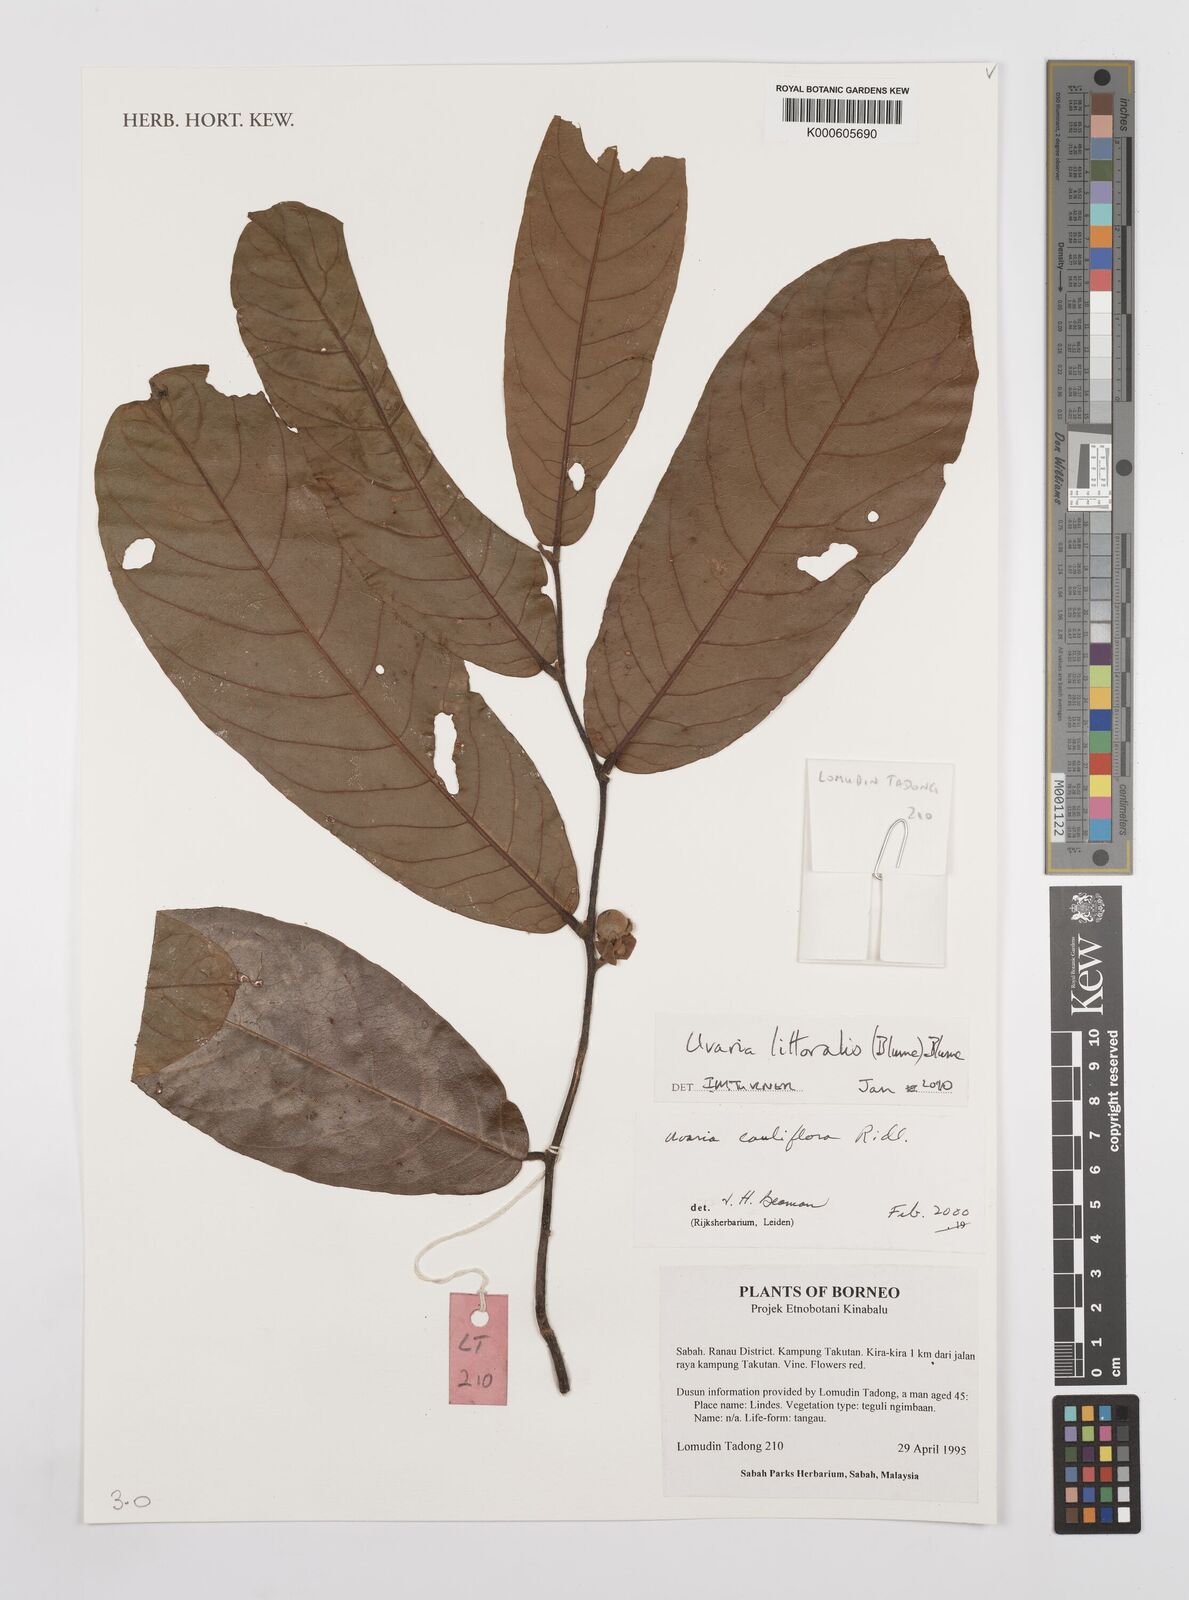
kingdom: Plantae
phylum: Tracheophyta
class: Magnoliopsida
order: Magnoliales
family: Annonaceae
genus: Uvaria
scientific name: Uvaria littoralis
